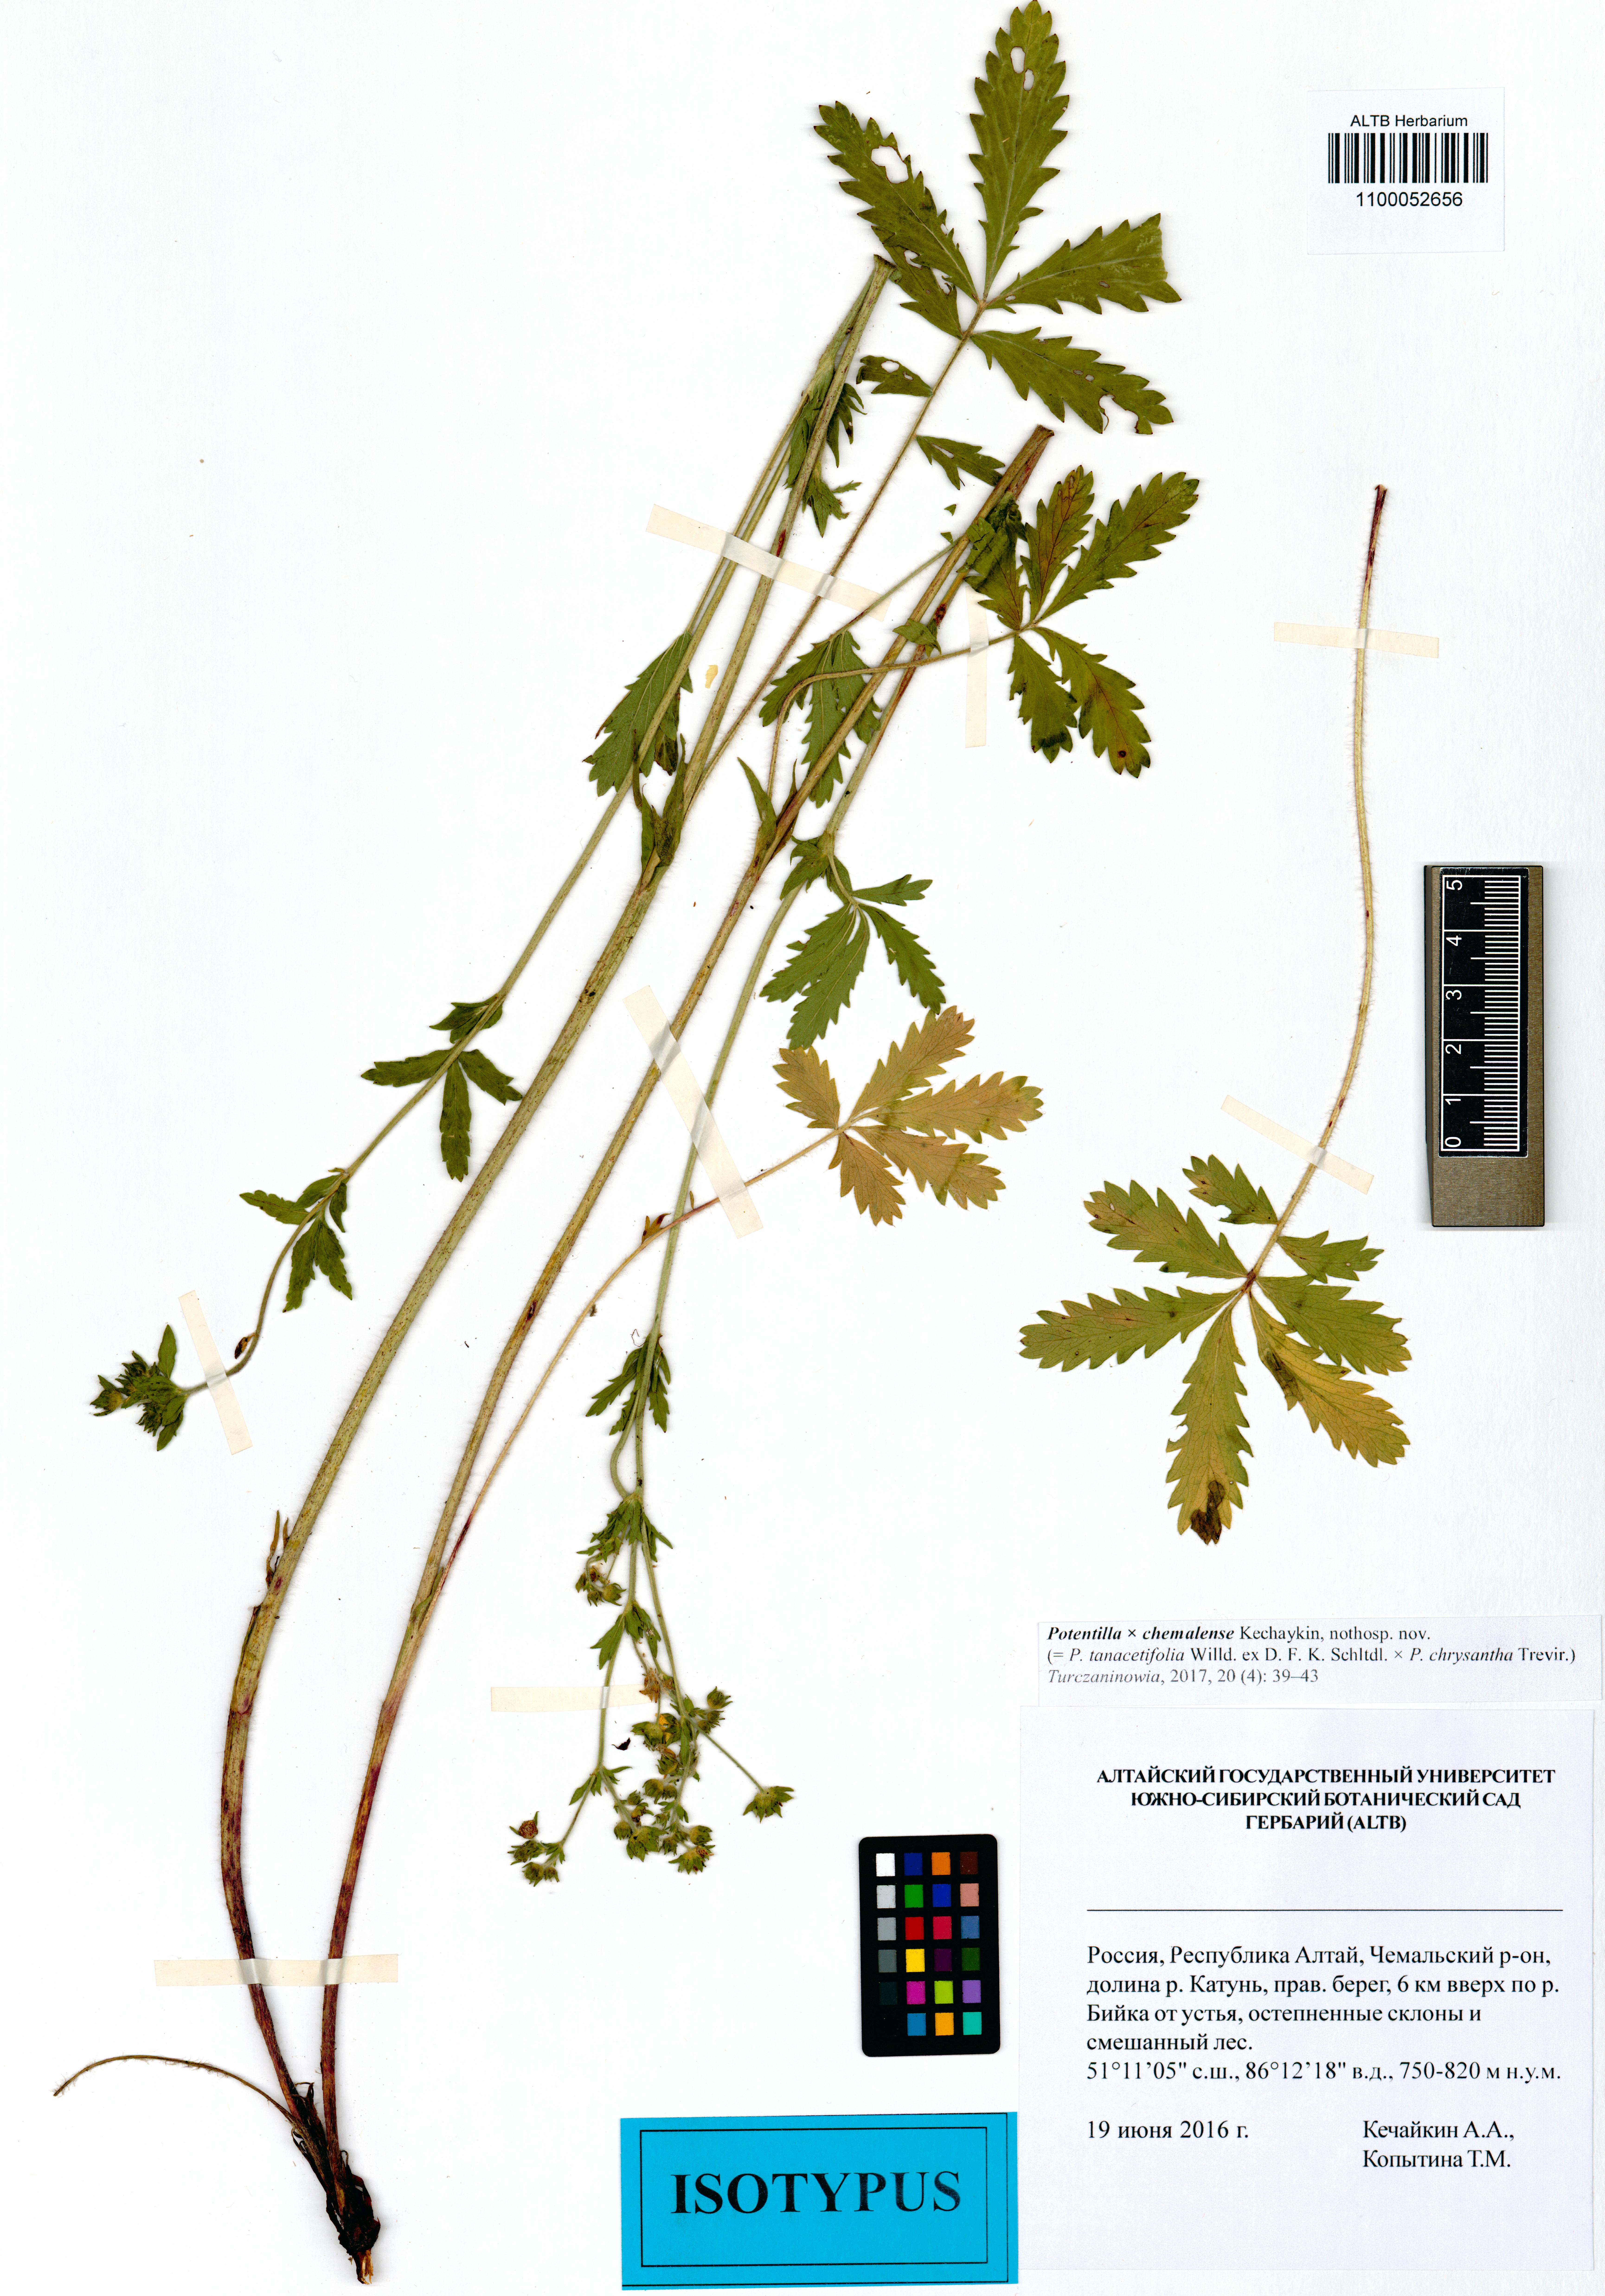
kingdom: Plantae
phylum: Tracheophyta
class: Magnoliopsida
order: Rosales
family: Rosaceae
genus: Potentilla
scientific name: Potentilla chemalensis
